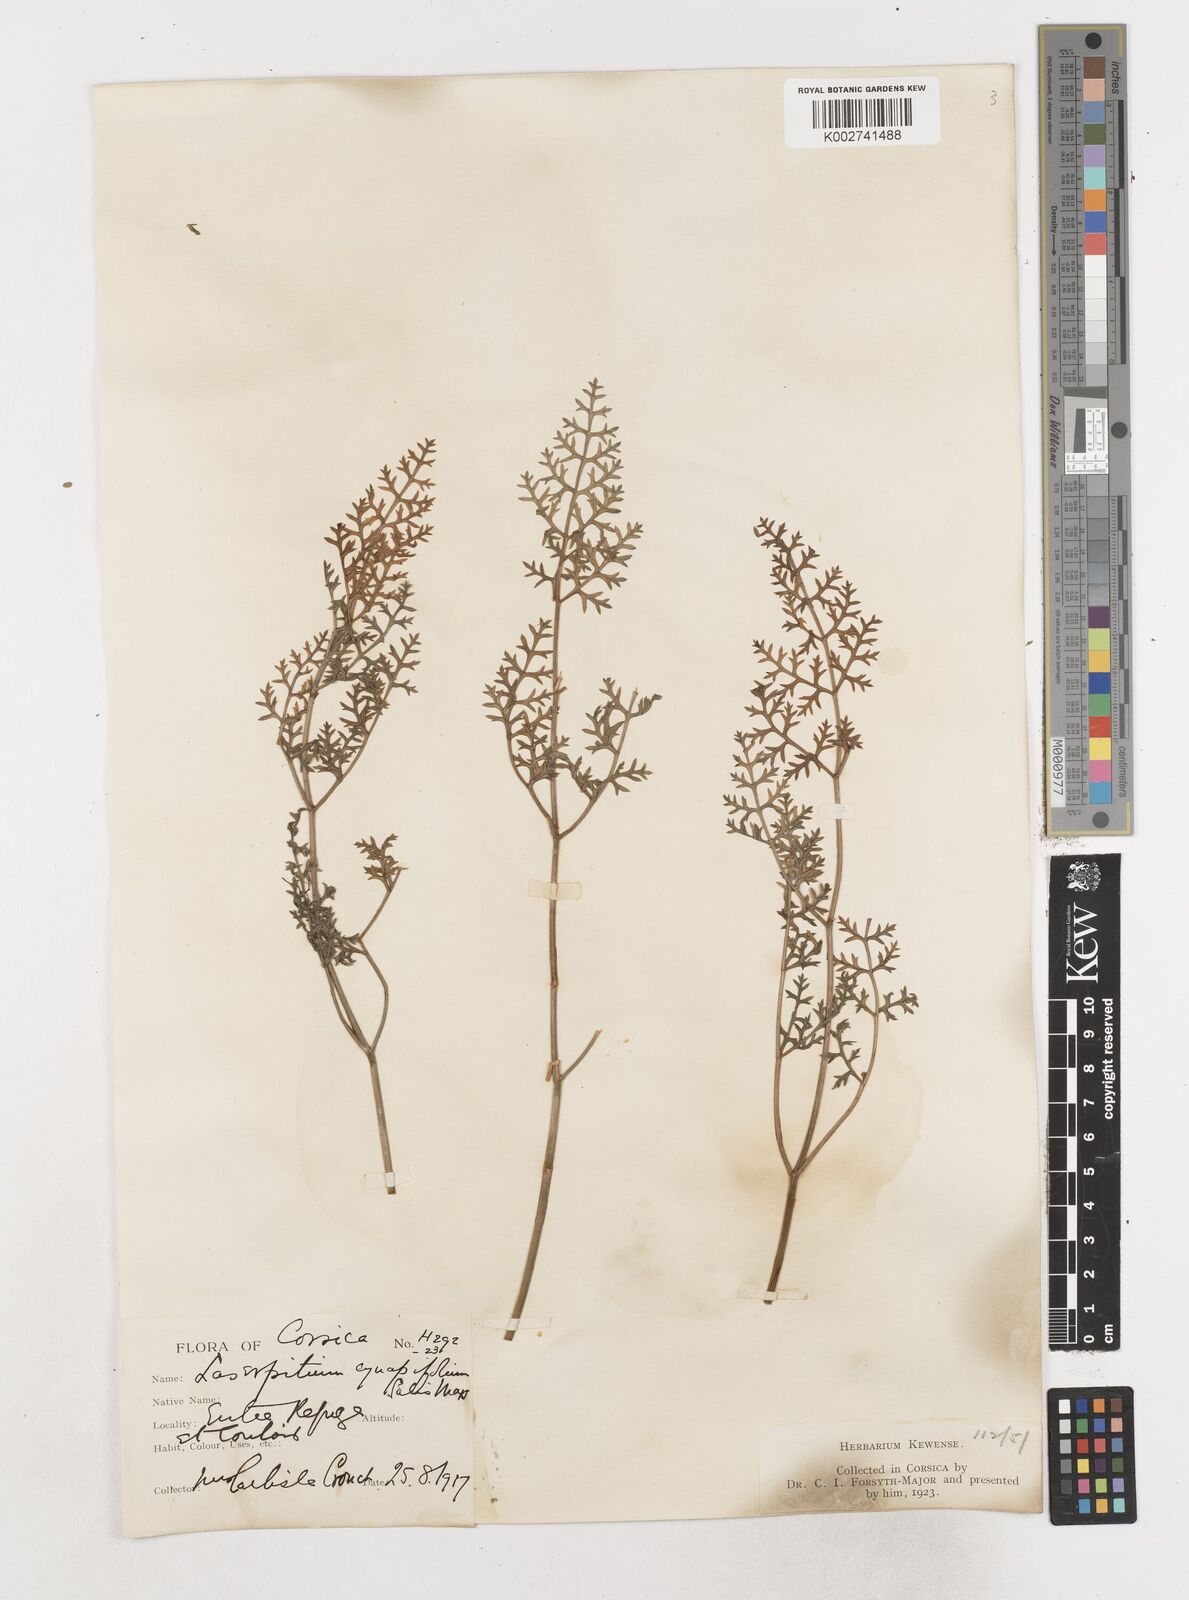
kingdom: Plantae
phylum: Tracheophyta
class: Magnoliopsida
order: Apiales
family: Apiaceae
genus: Laserpitium
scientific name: Laserpitium halleri
